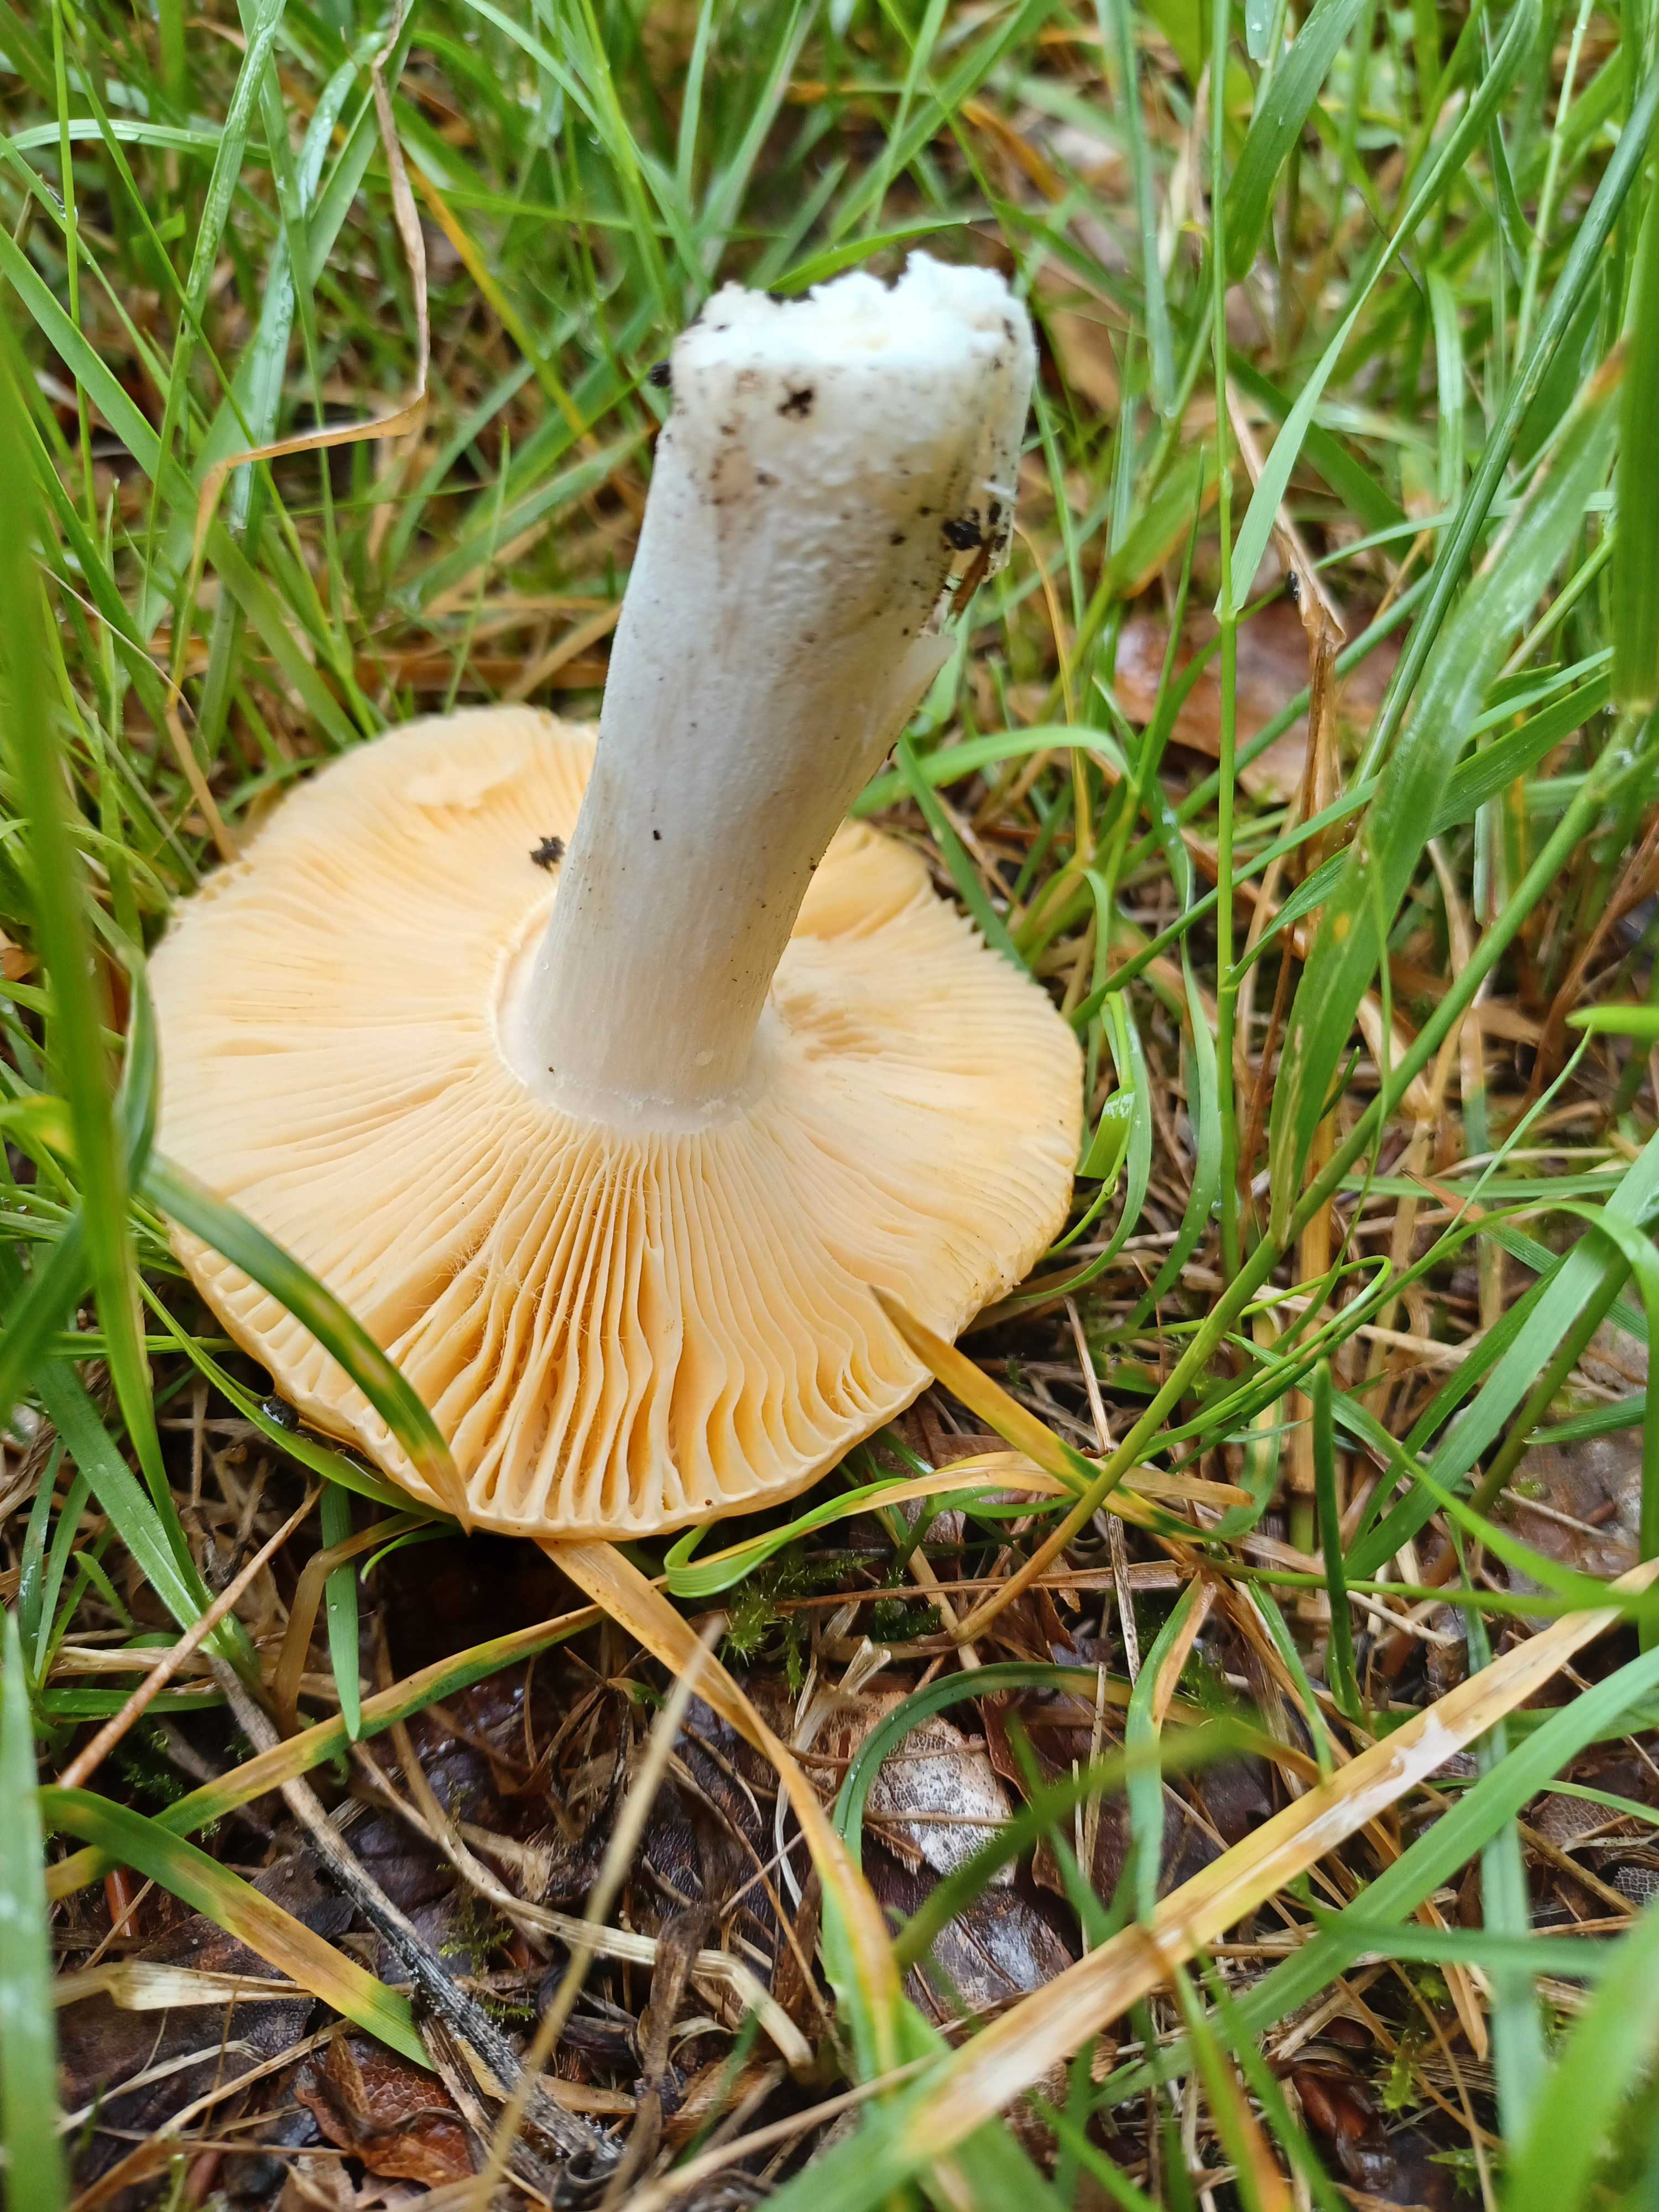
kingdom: Fungi
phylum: Basidiomycota
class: Agaricomycetes
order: Russulales
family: Russulaceae
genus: Russula
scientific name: Russula
